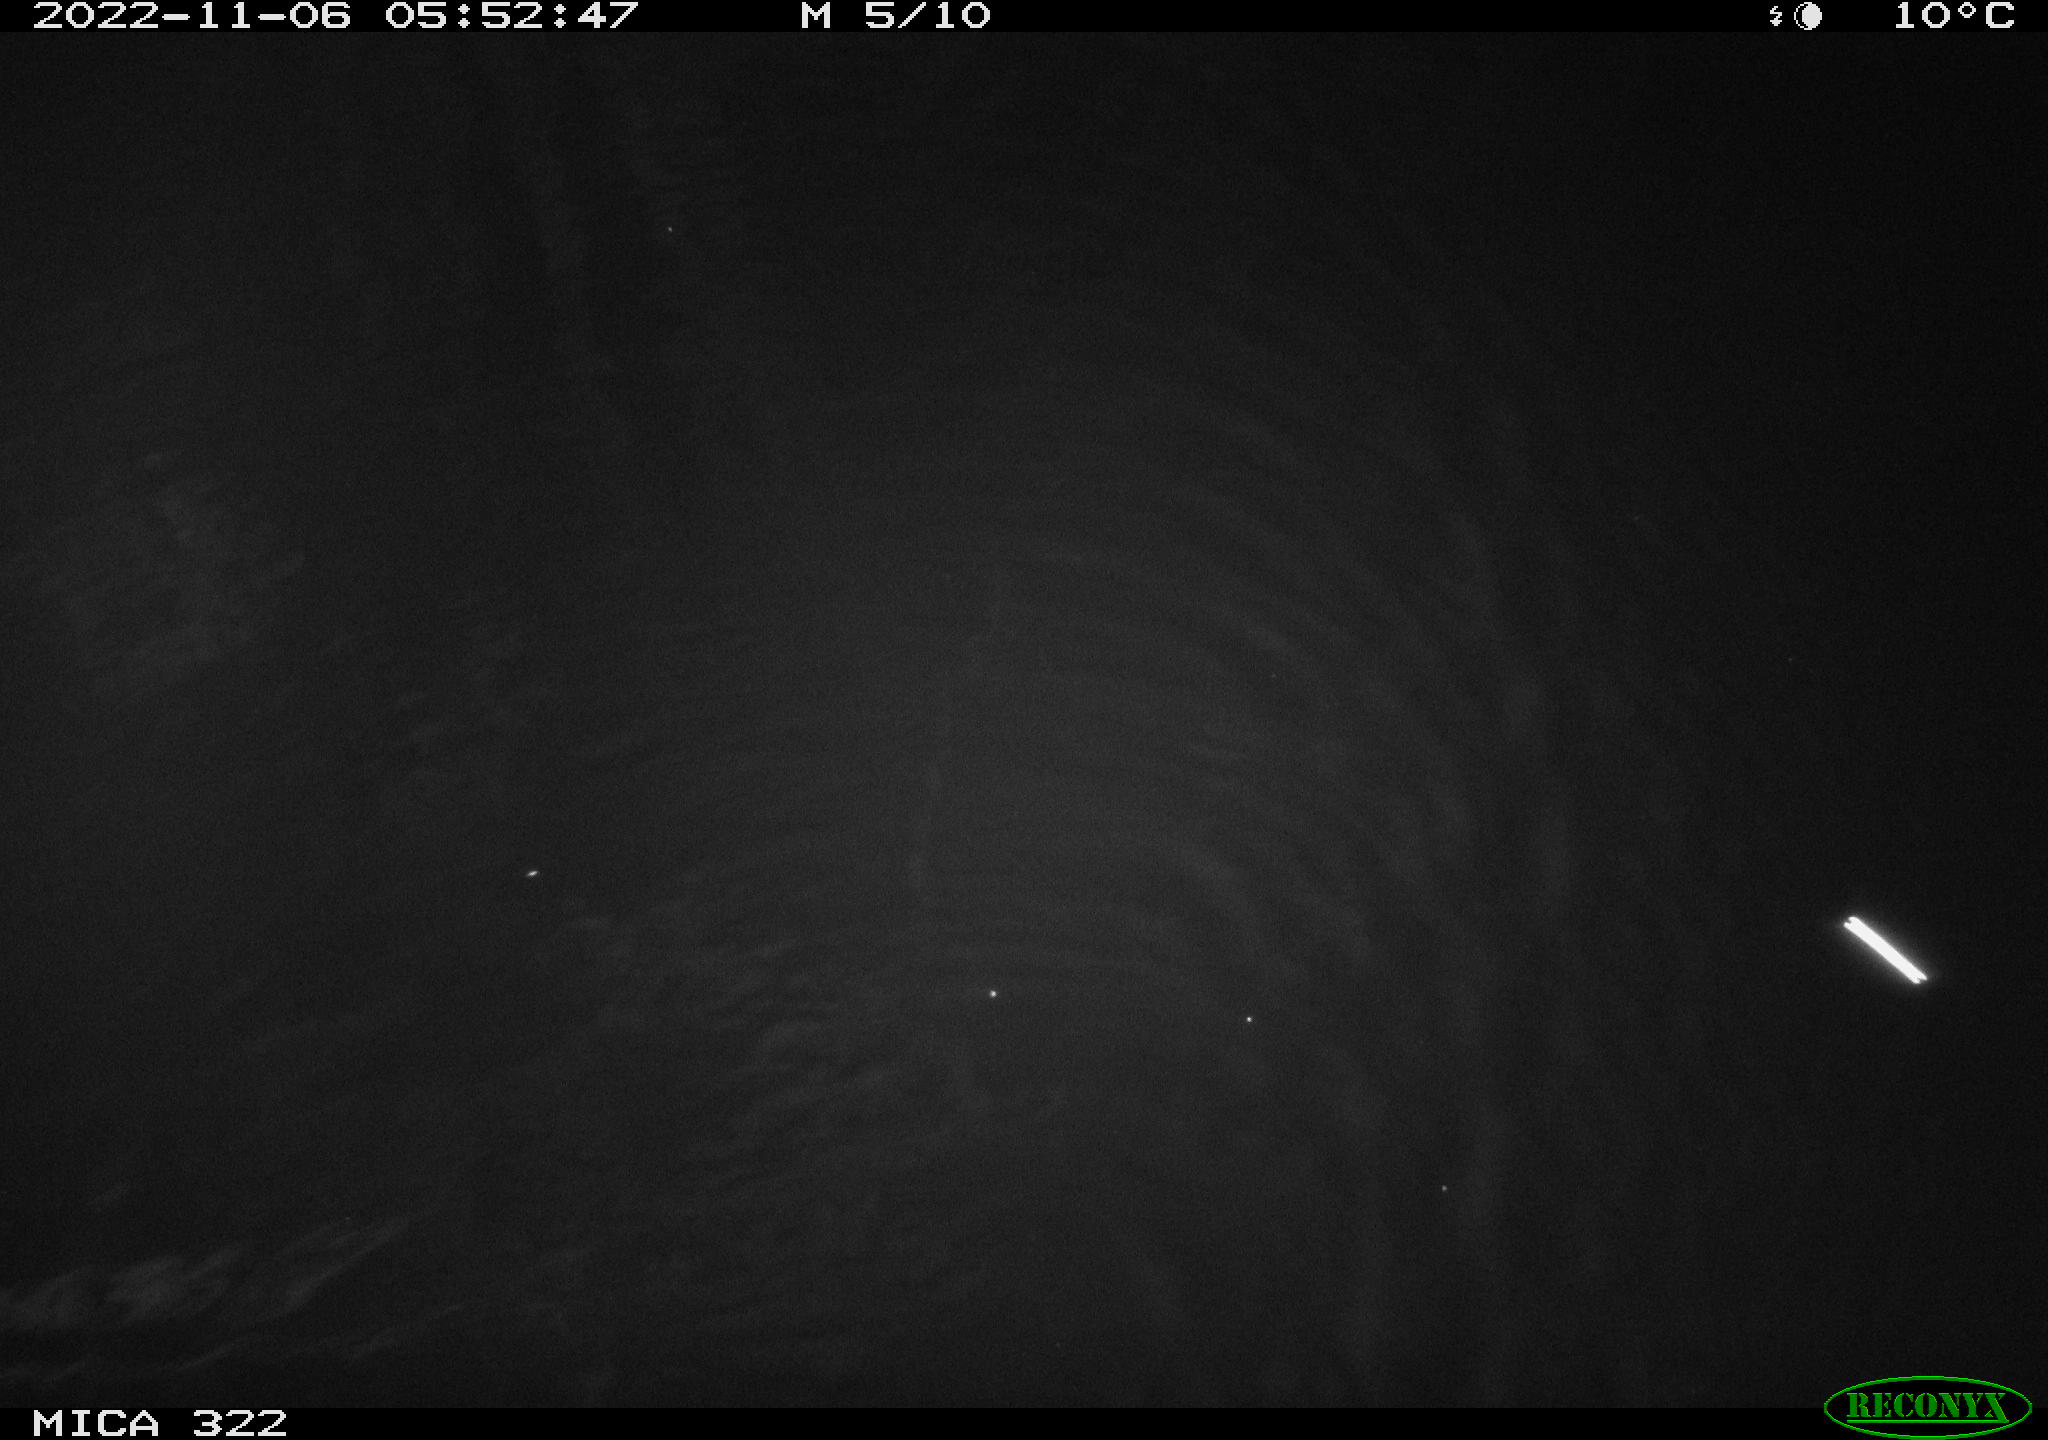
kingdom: Animalia
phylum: Chordata
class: Mammalia
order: Rodentia
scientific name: Rodentia
